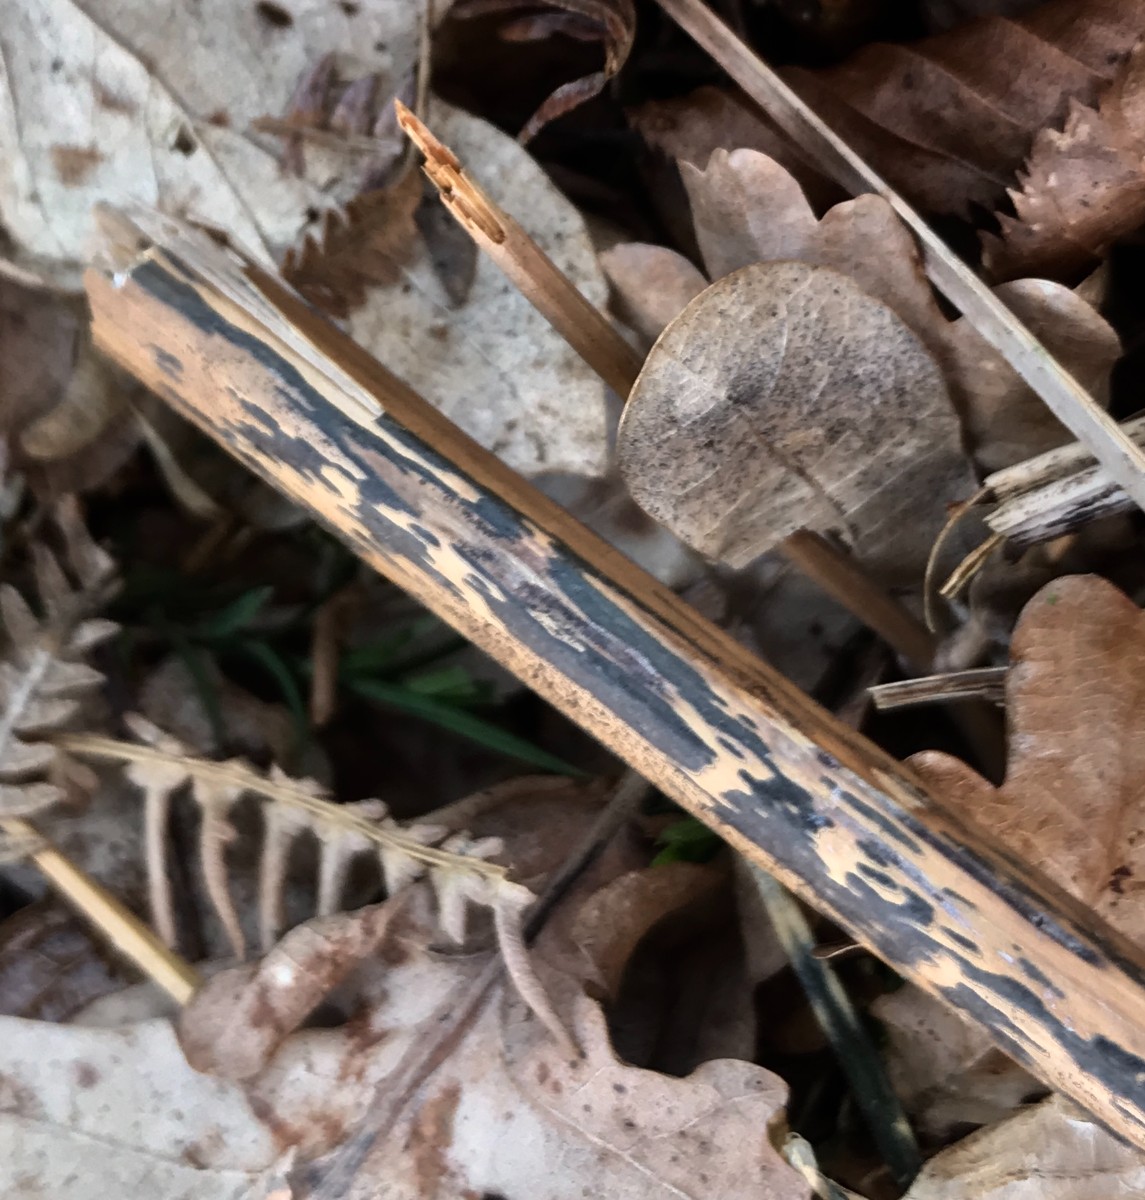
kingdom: Fungi
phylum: Ascomycota
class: Dothideomycetes
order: Pleosporales
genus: Rhopographus
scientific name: Rhopographus filicinus
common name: Bracken map
